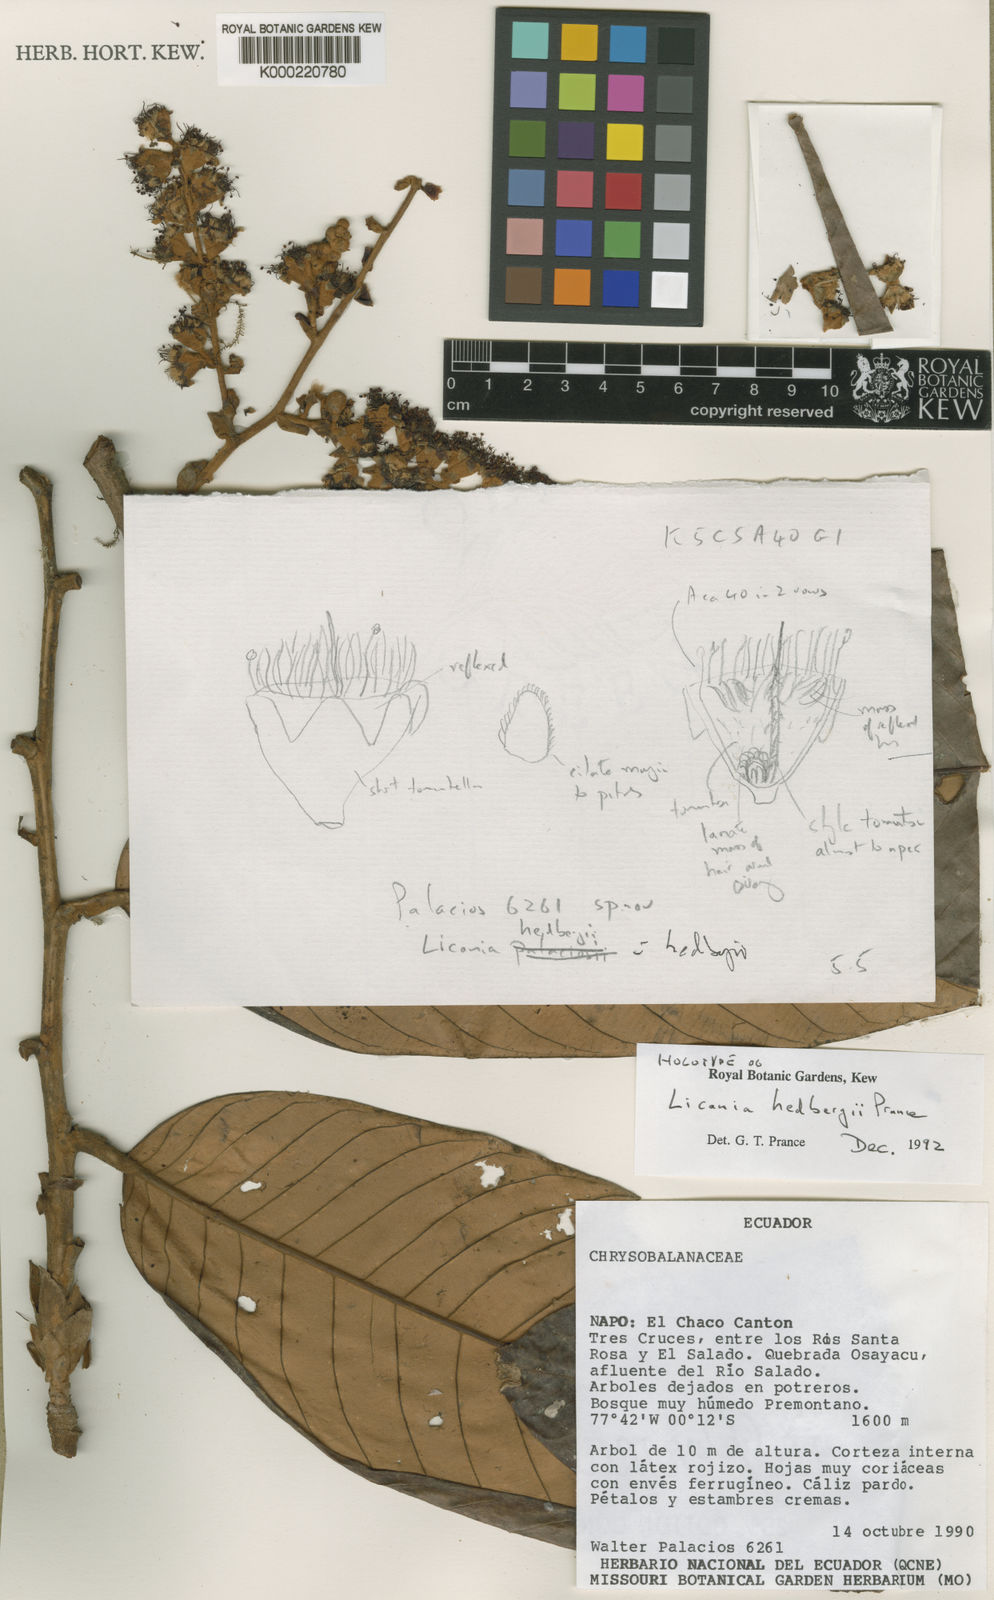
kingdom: Plantae
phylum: Tracheophyta
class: Magnoliopsida
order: Malpighiales
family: Chrysobalanaceae
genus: Moquilea
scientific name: Moquilea hedbergii
